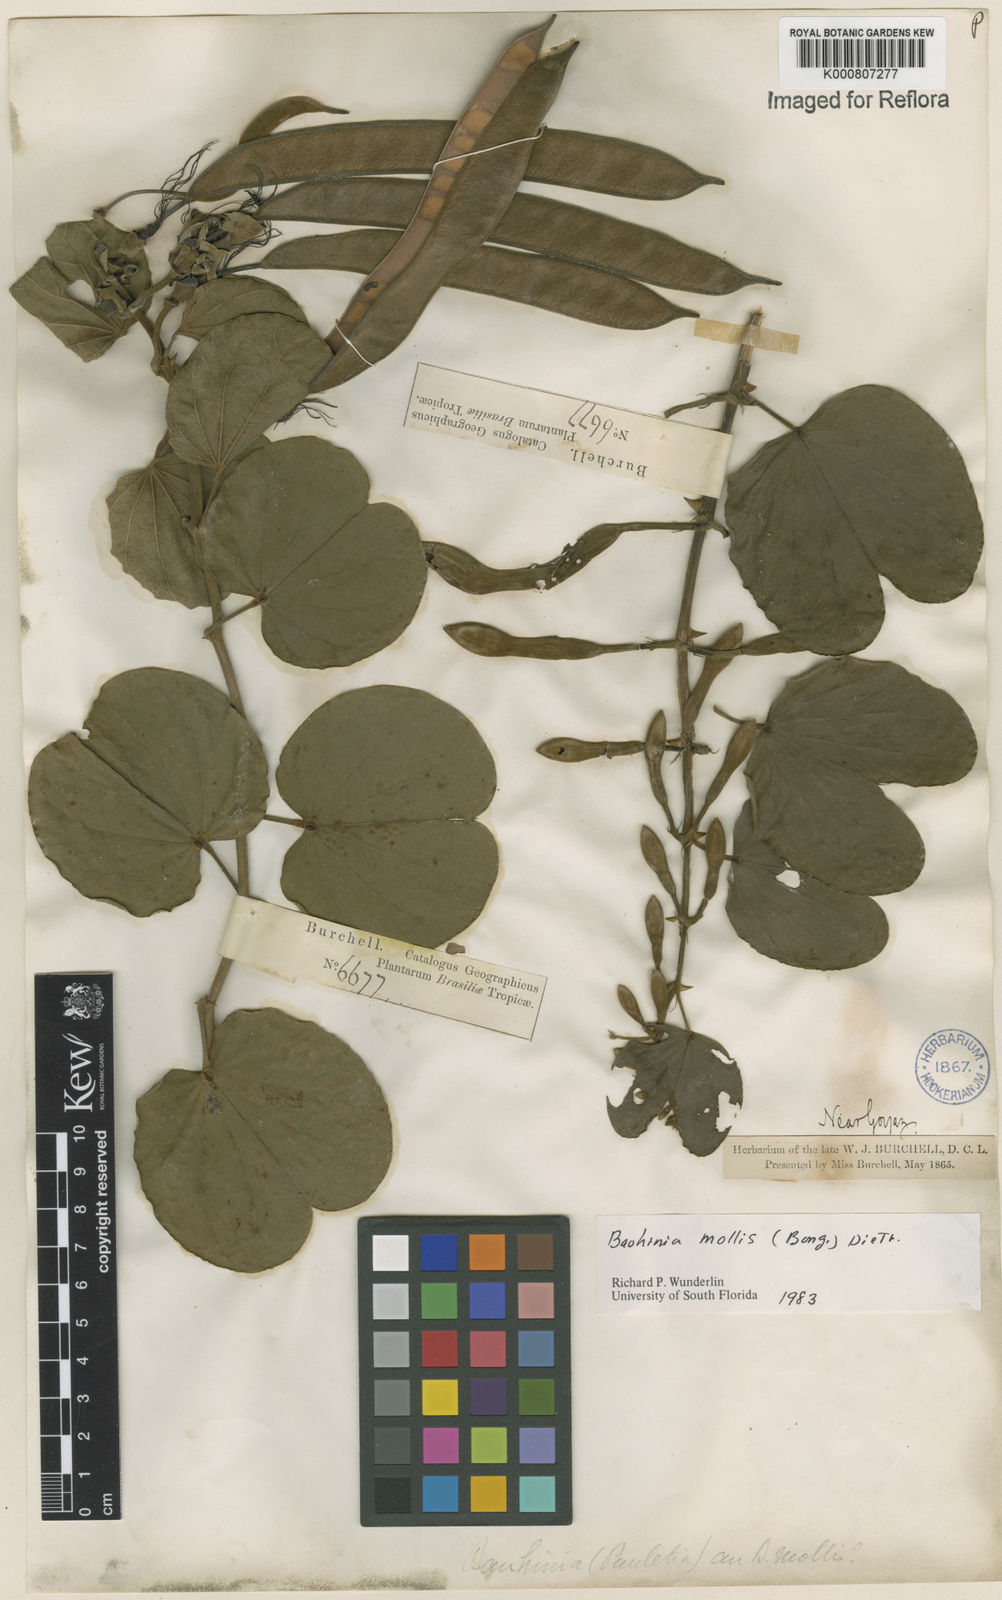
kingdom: Plantae
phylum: Tracheophyta
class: Magnoliopsida
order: Fabales
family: Fabaceae
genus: Bauhinia
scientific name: Bauhinia mollis
